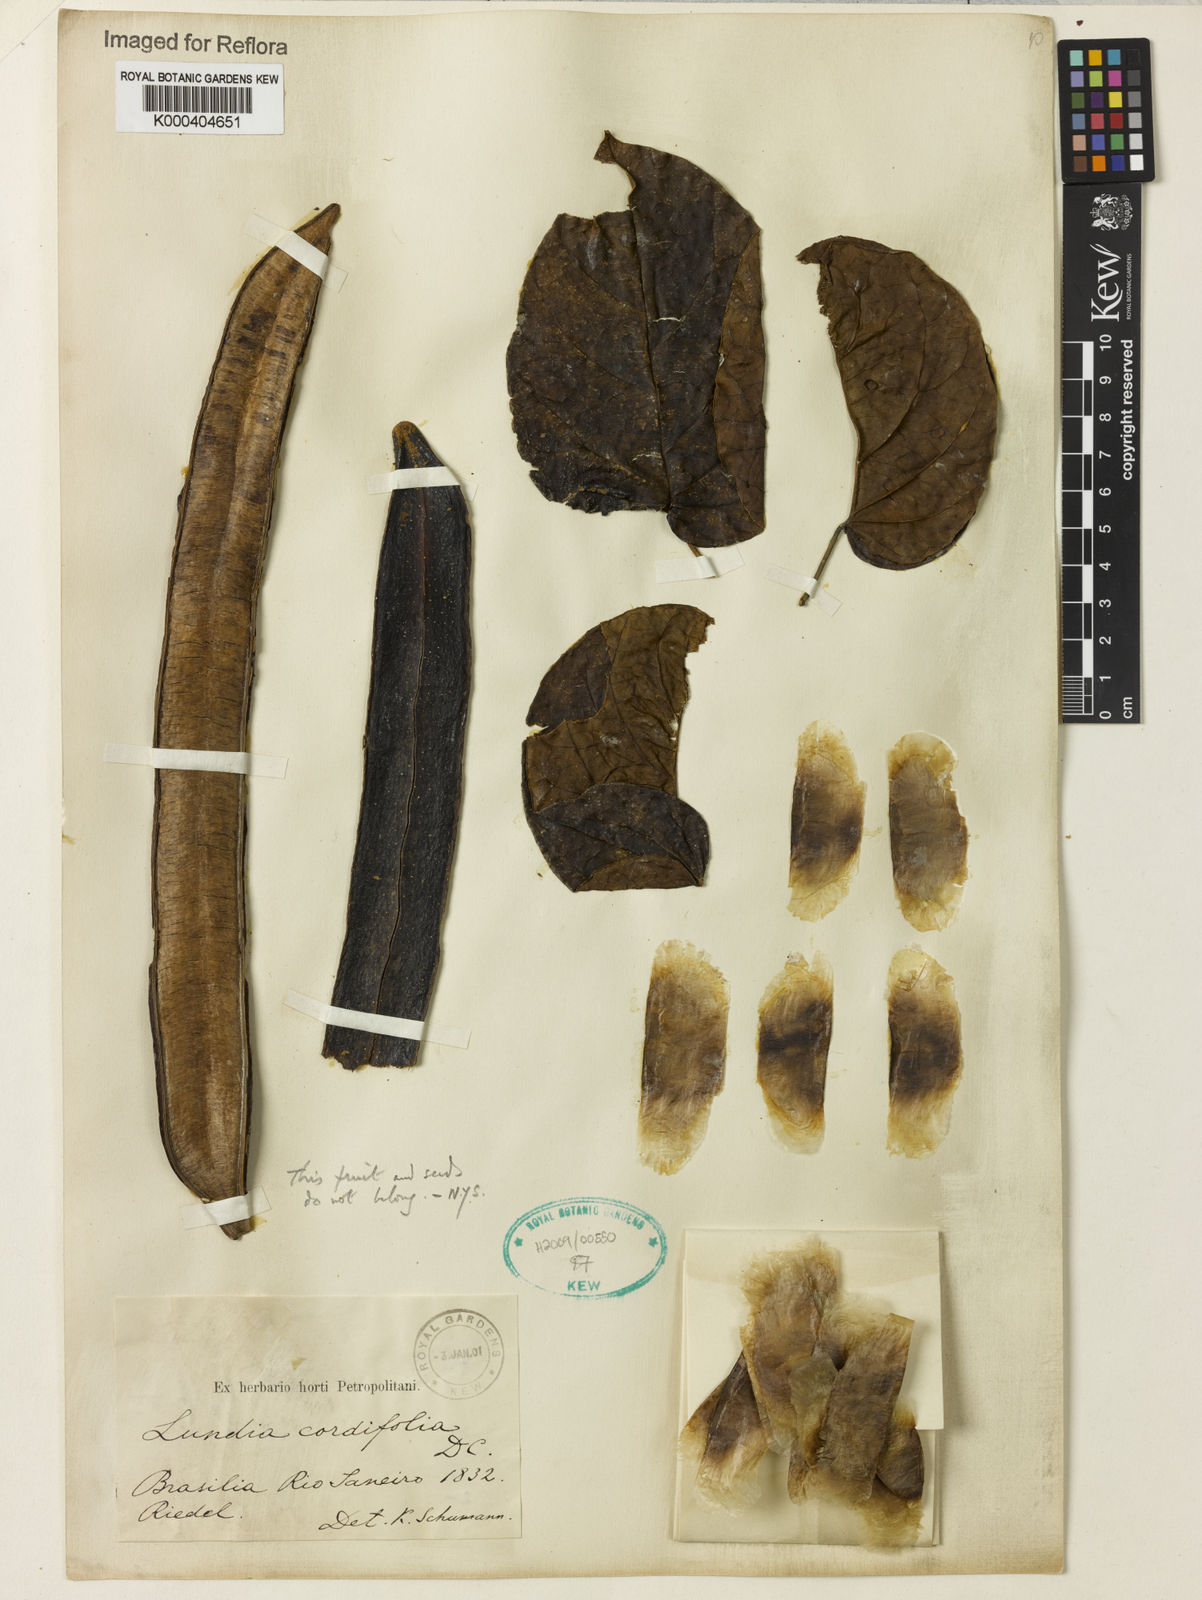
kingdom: Plantae
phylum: Tracheophyta
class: Magnoliopsida
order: Lamiales
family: Bignoniaceae
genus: Lundia
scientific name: Lundia
